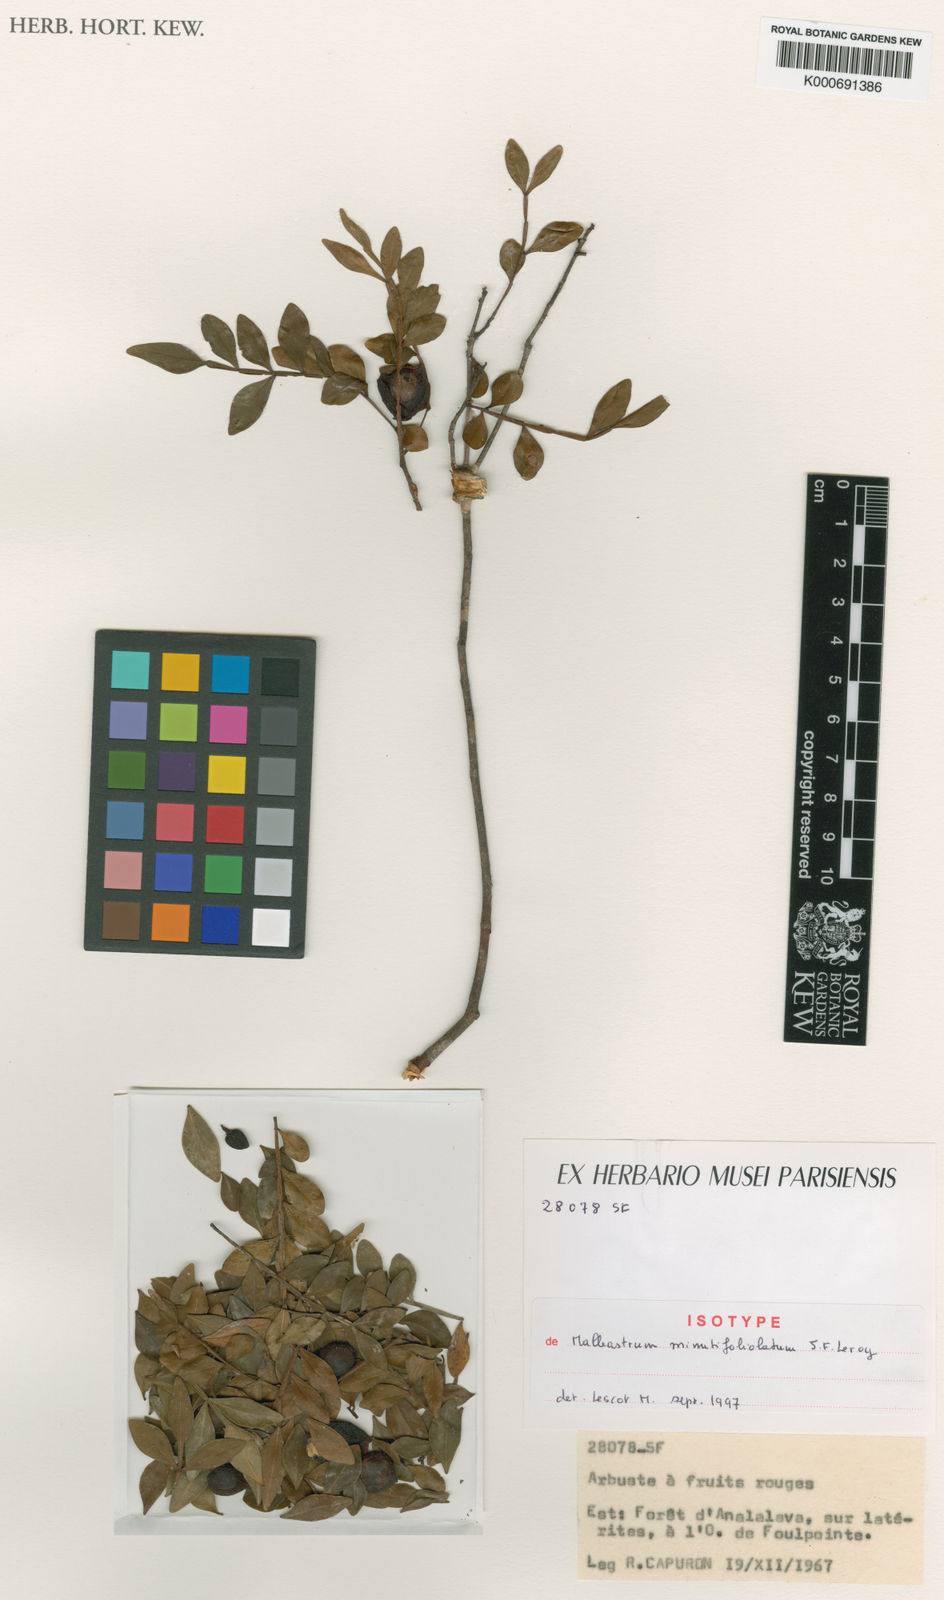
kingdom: Plantae
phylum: Tracheophyta
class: Magnoliopsida
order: Sapindales
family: Meliaceae
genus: Malleastrum
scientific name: Malleastrum minutifoliolatum
